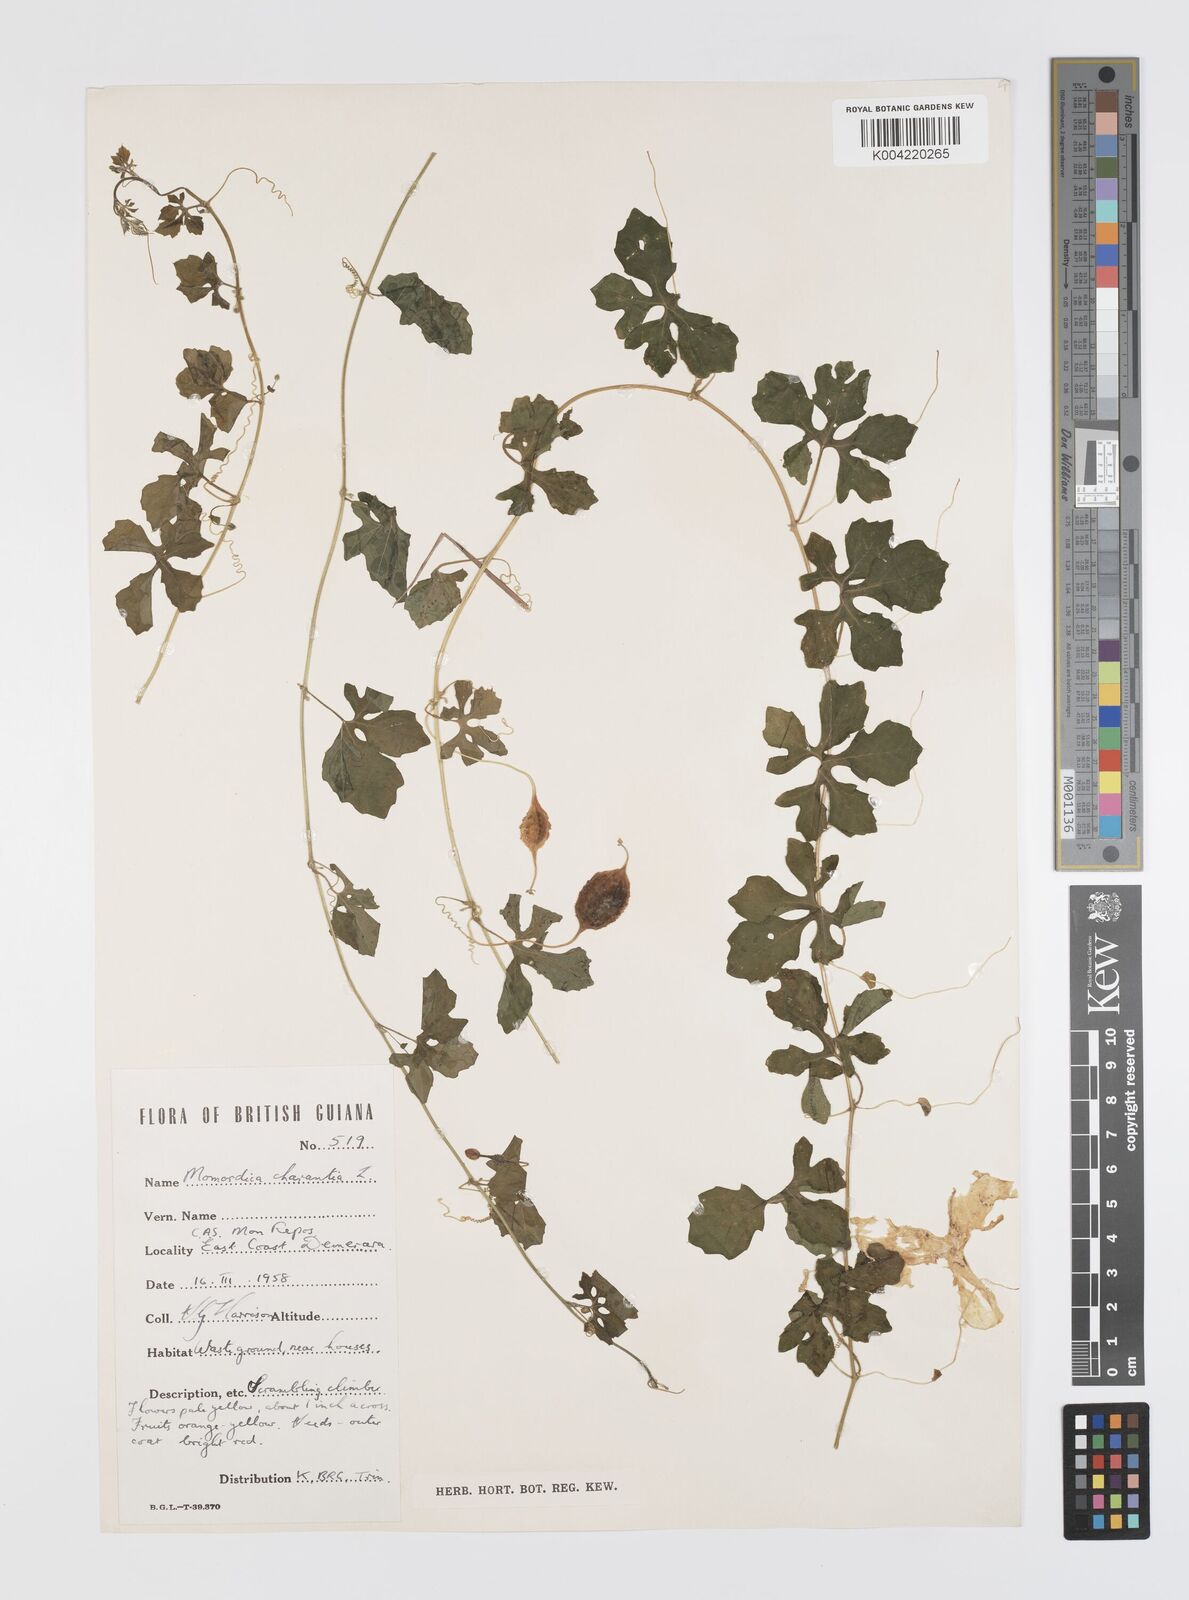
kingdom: Plantae
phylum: Tracheophyta
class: Magnoliopsida
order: Cucurbitales
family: Cucurbitaceae
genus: Momordica
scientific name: Momordica charantia
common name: Balsampear
